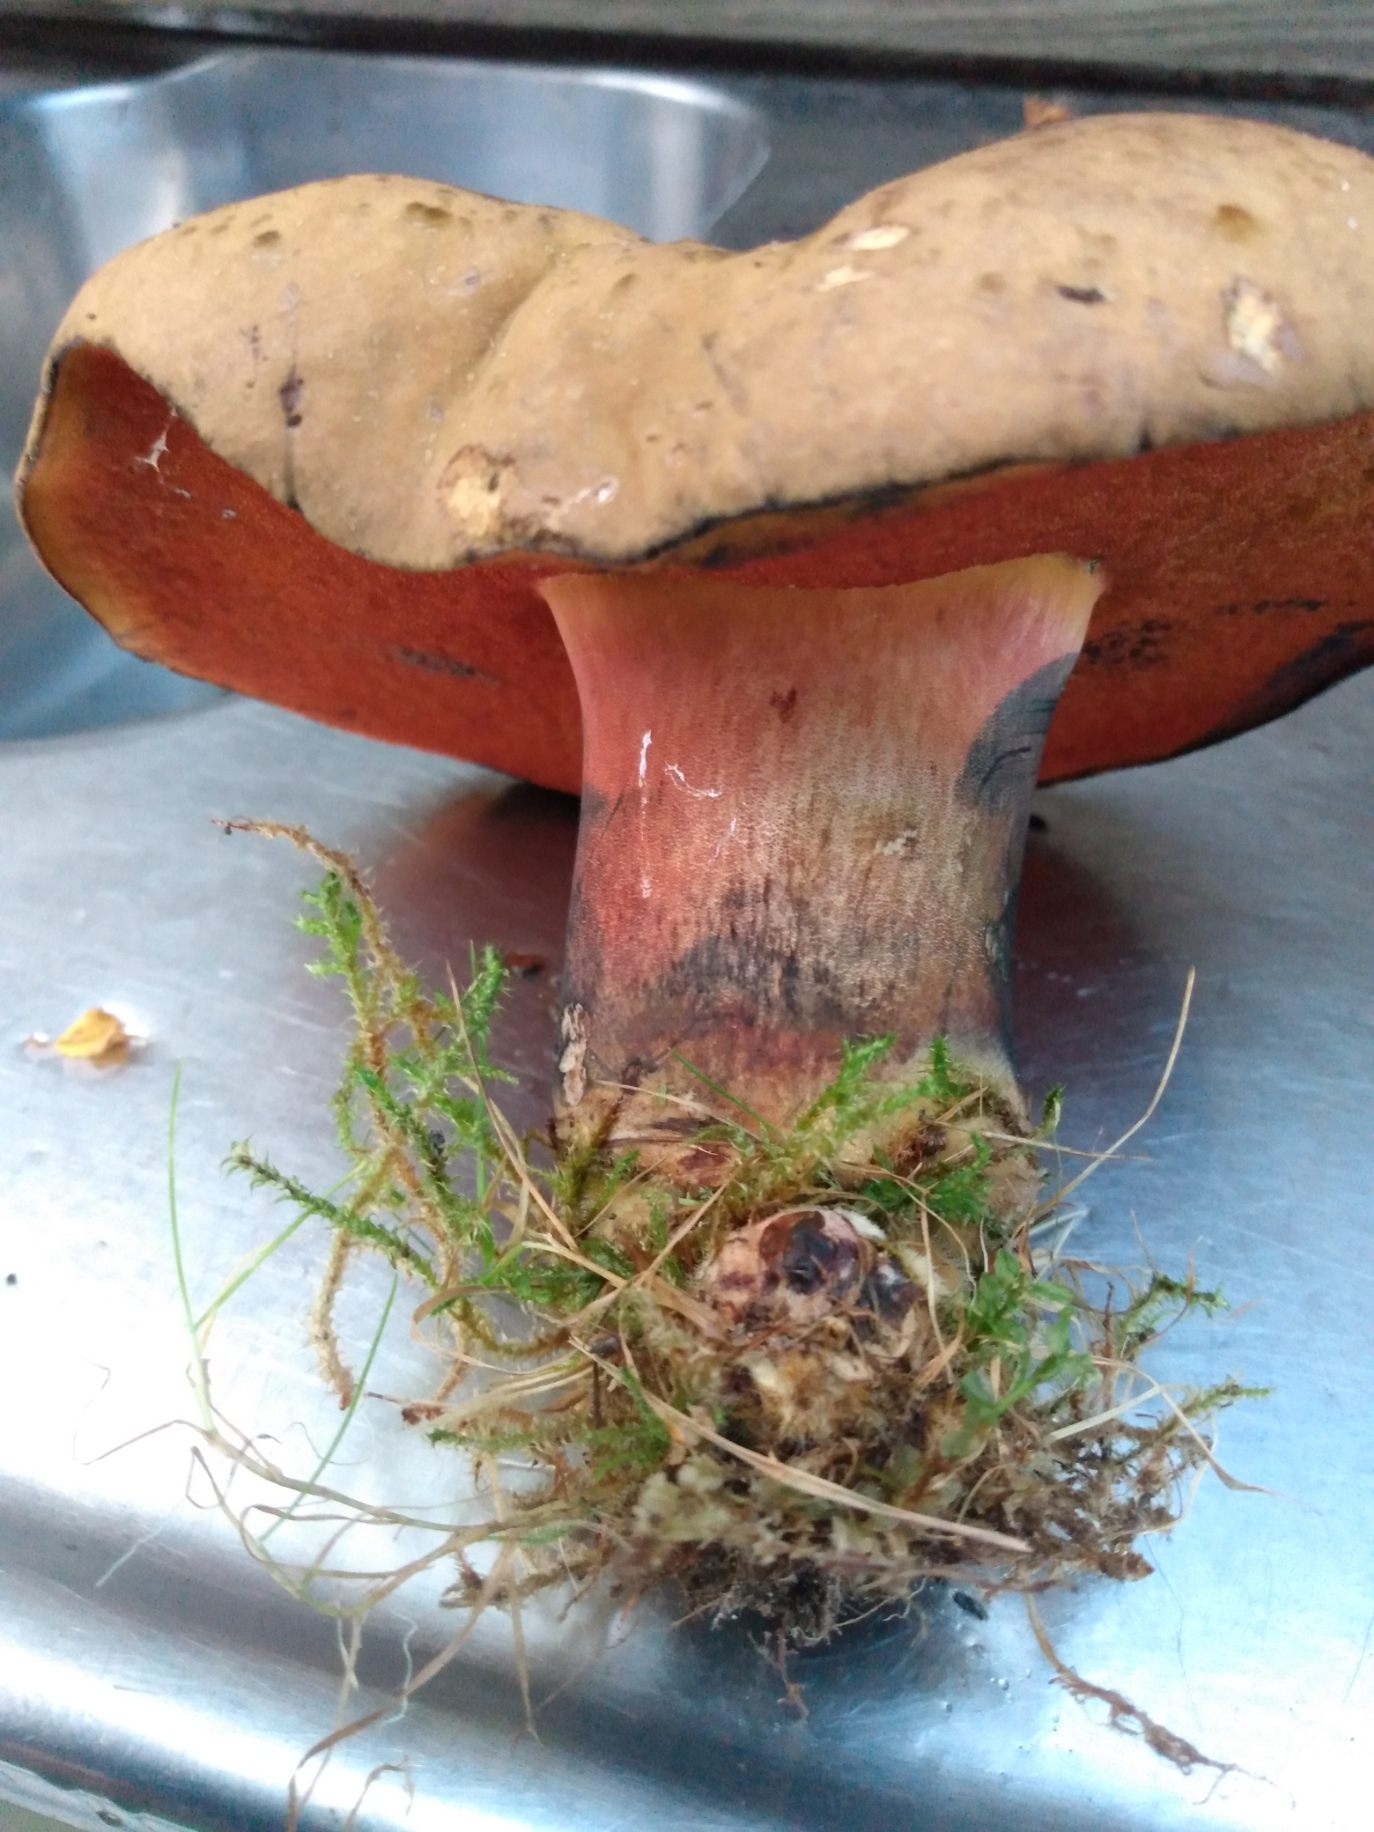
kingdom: Fungi
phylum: Basidiomycota
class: Agaricomycetes
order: Boletales
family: Boletaceae
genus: Neoboletus
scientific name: Neoboletus erythropus
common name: punktstokket indigorørhat
